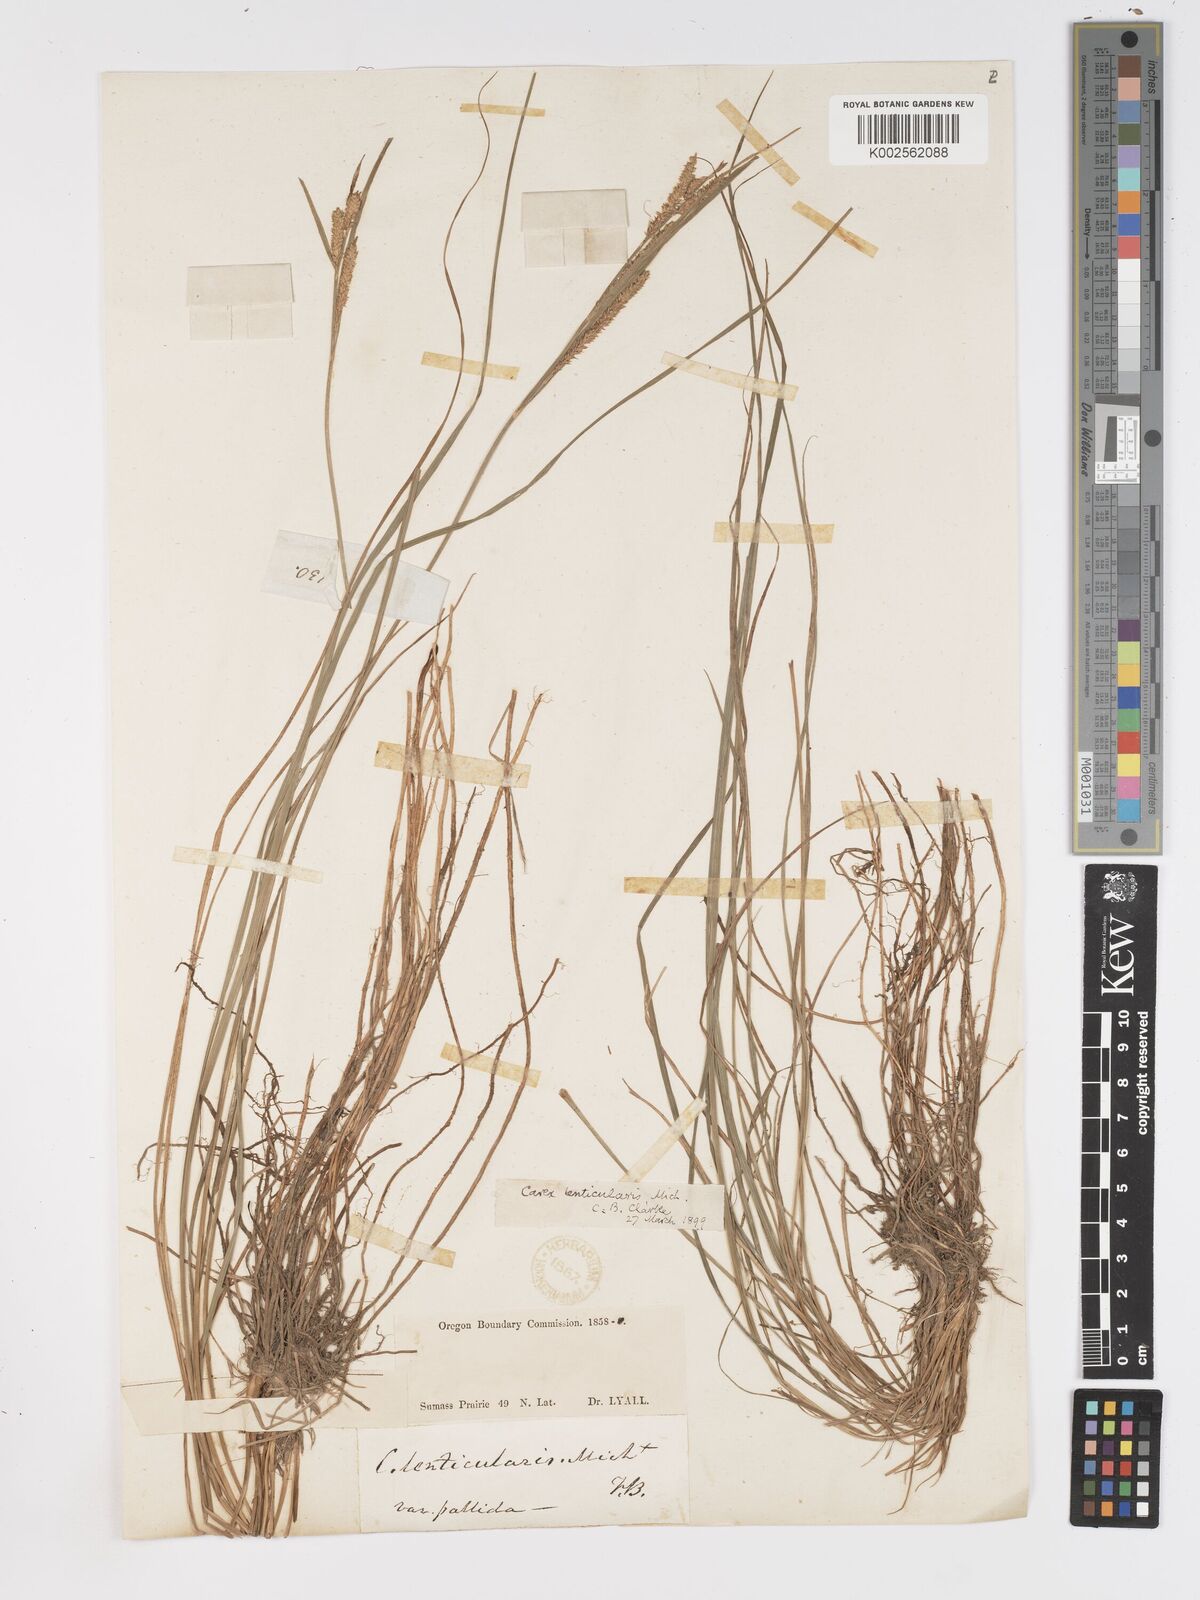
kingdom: Plantae
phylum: Tracheophyta
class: Liliopsida
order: Poales
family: Cyperaceae
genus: Carex
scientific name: Carex lenticularis
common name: Lakeshore sedge
